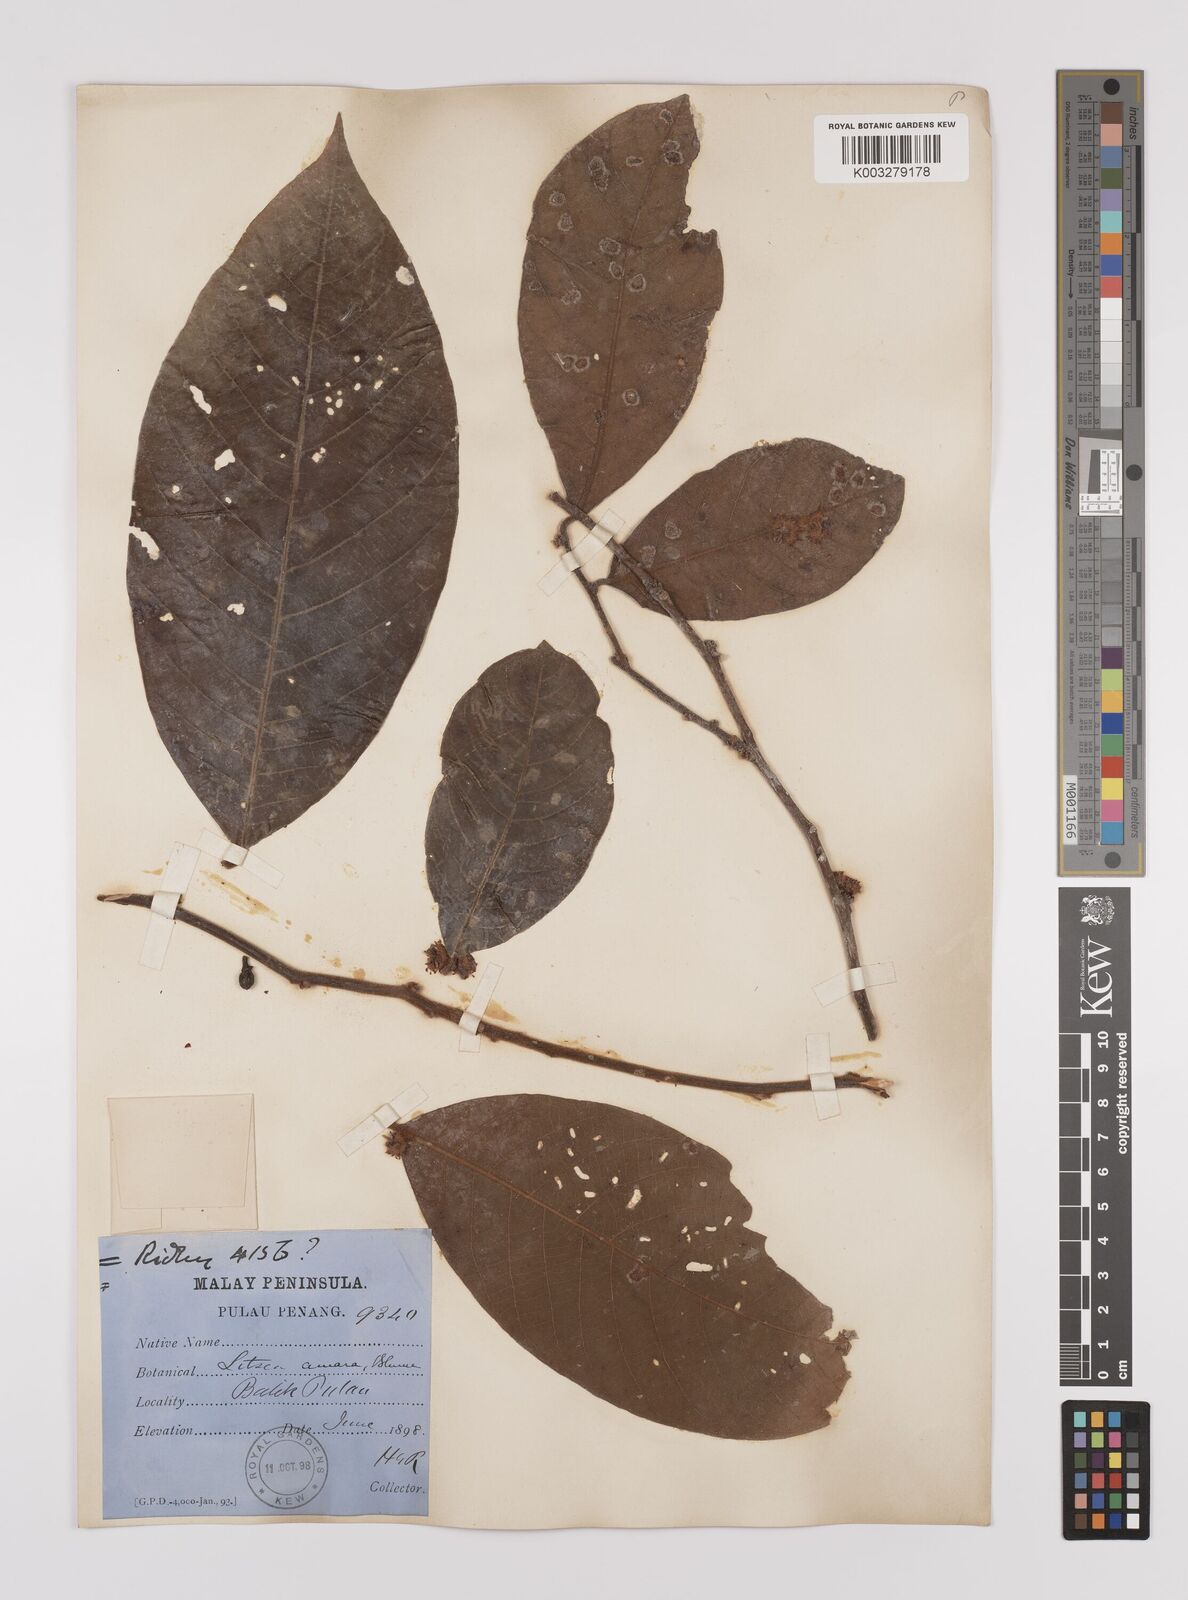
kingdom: Plantae
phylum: Tracheophyta
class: Magnoliopsida
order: Laurales
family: Lauraceae
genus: Litsea
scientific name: Litsea umbellata
